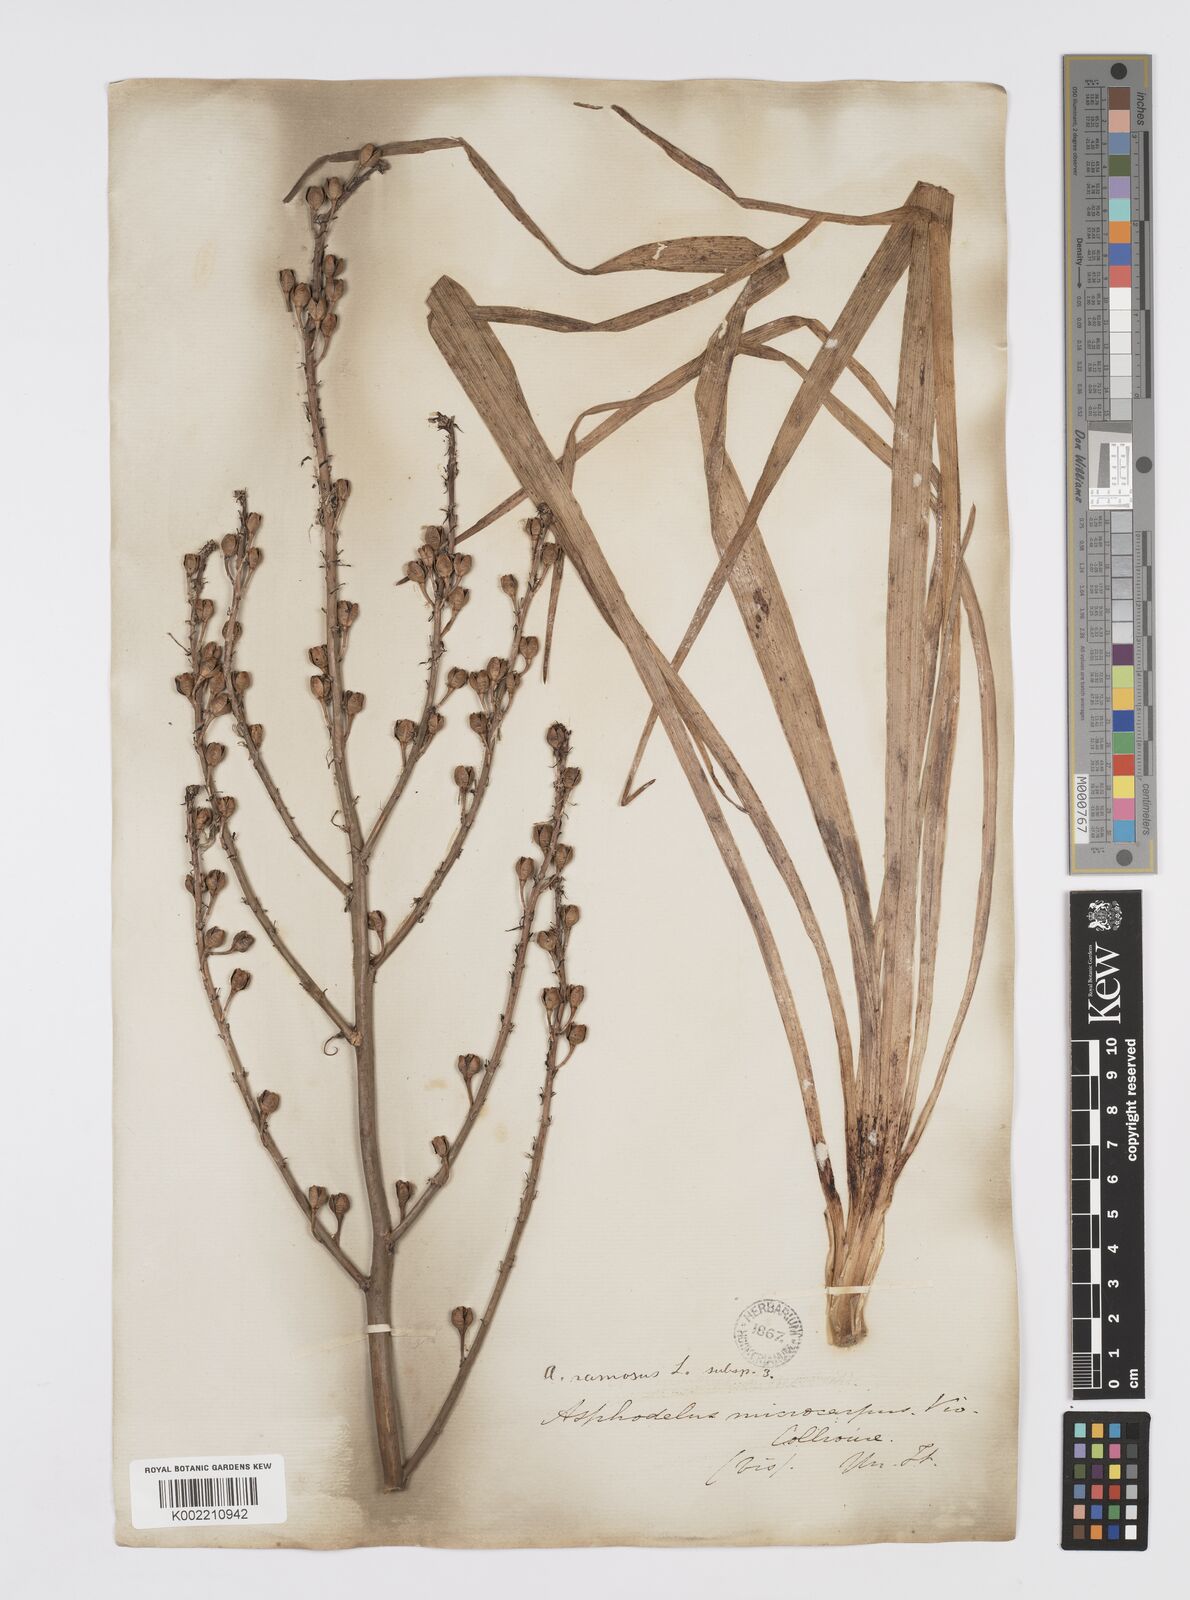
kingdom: Plantae
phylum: Tracheophyta
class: Liliopsida
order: Asparagales
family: Asphodelaceae
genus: Asphodelus
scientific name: Asphodelus ramosus
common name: Silverrod
